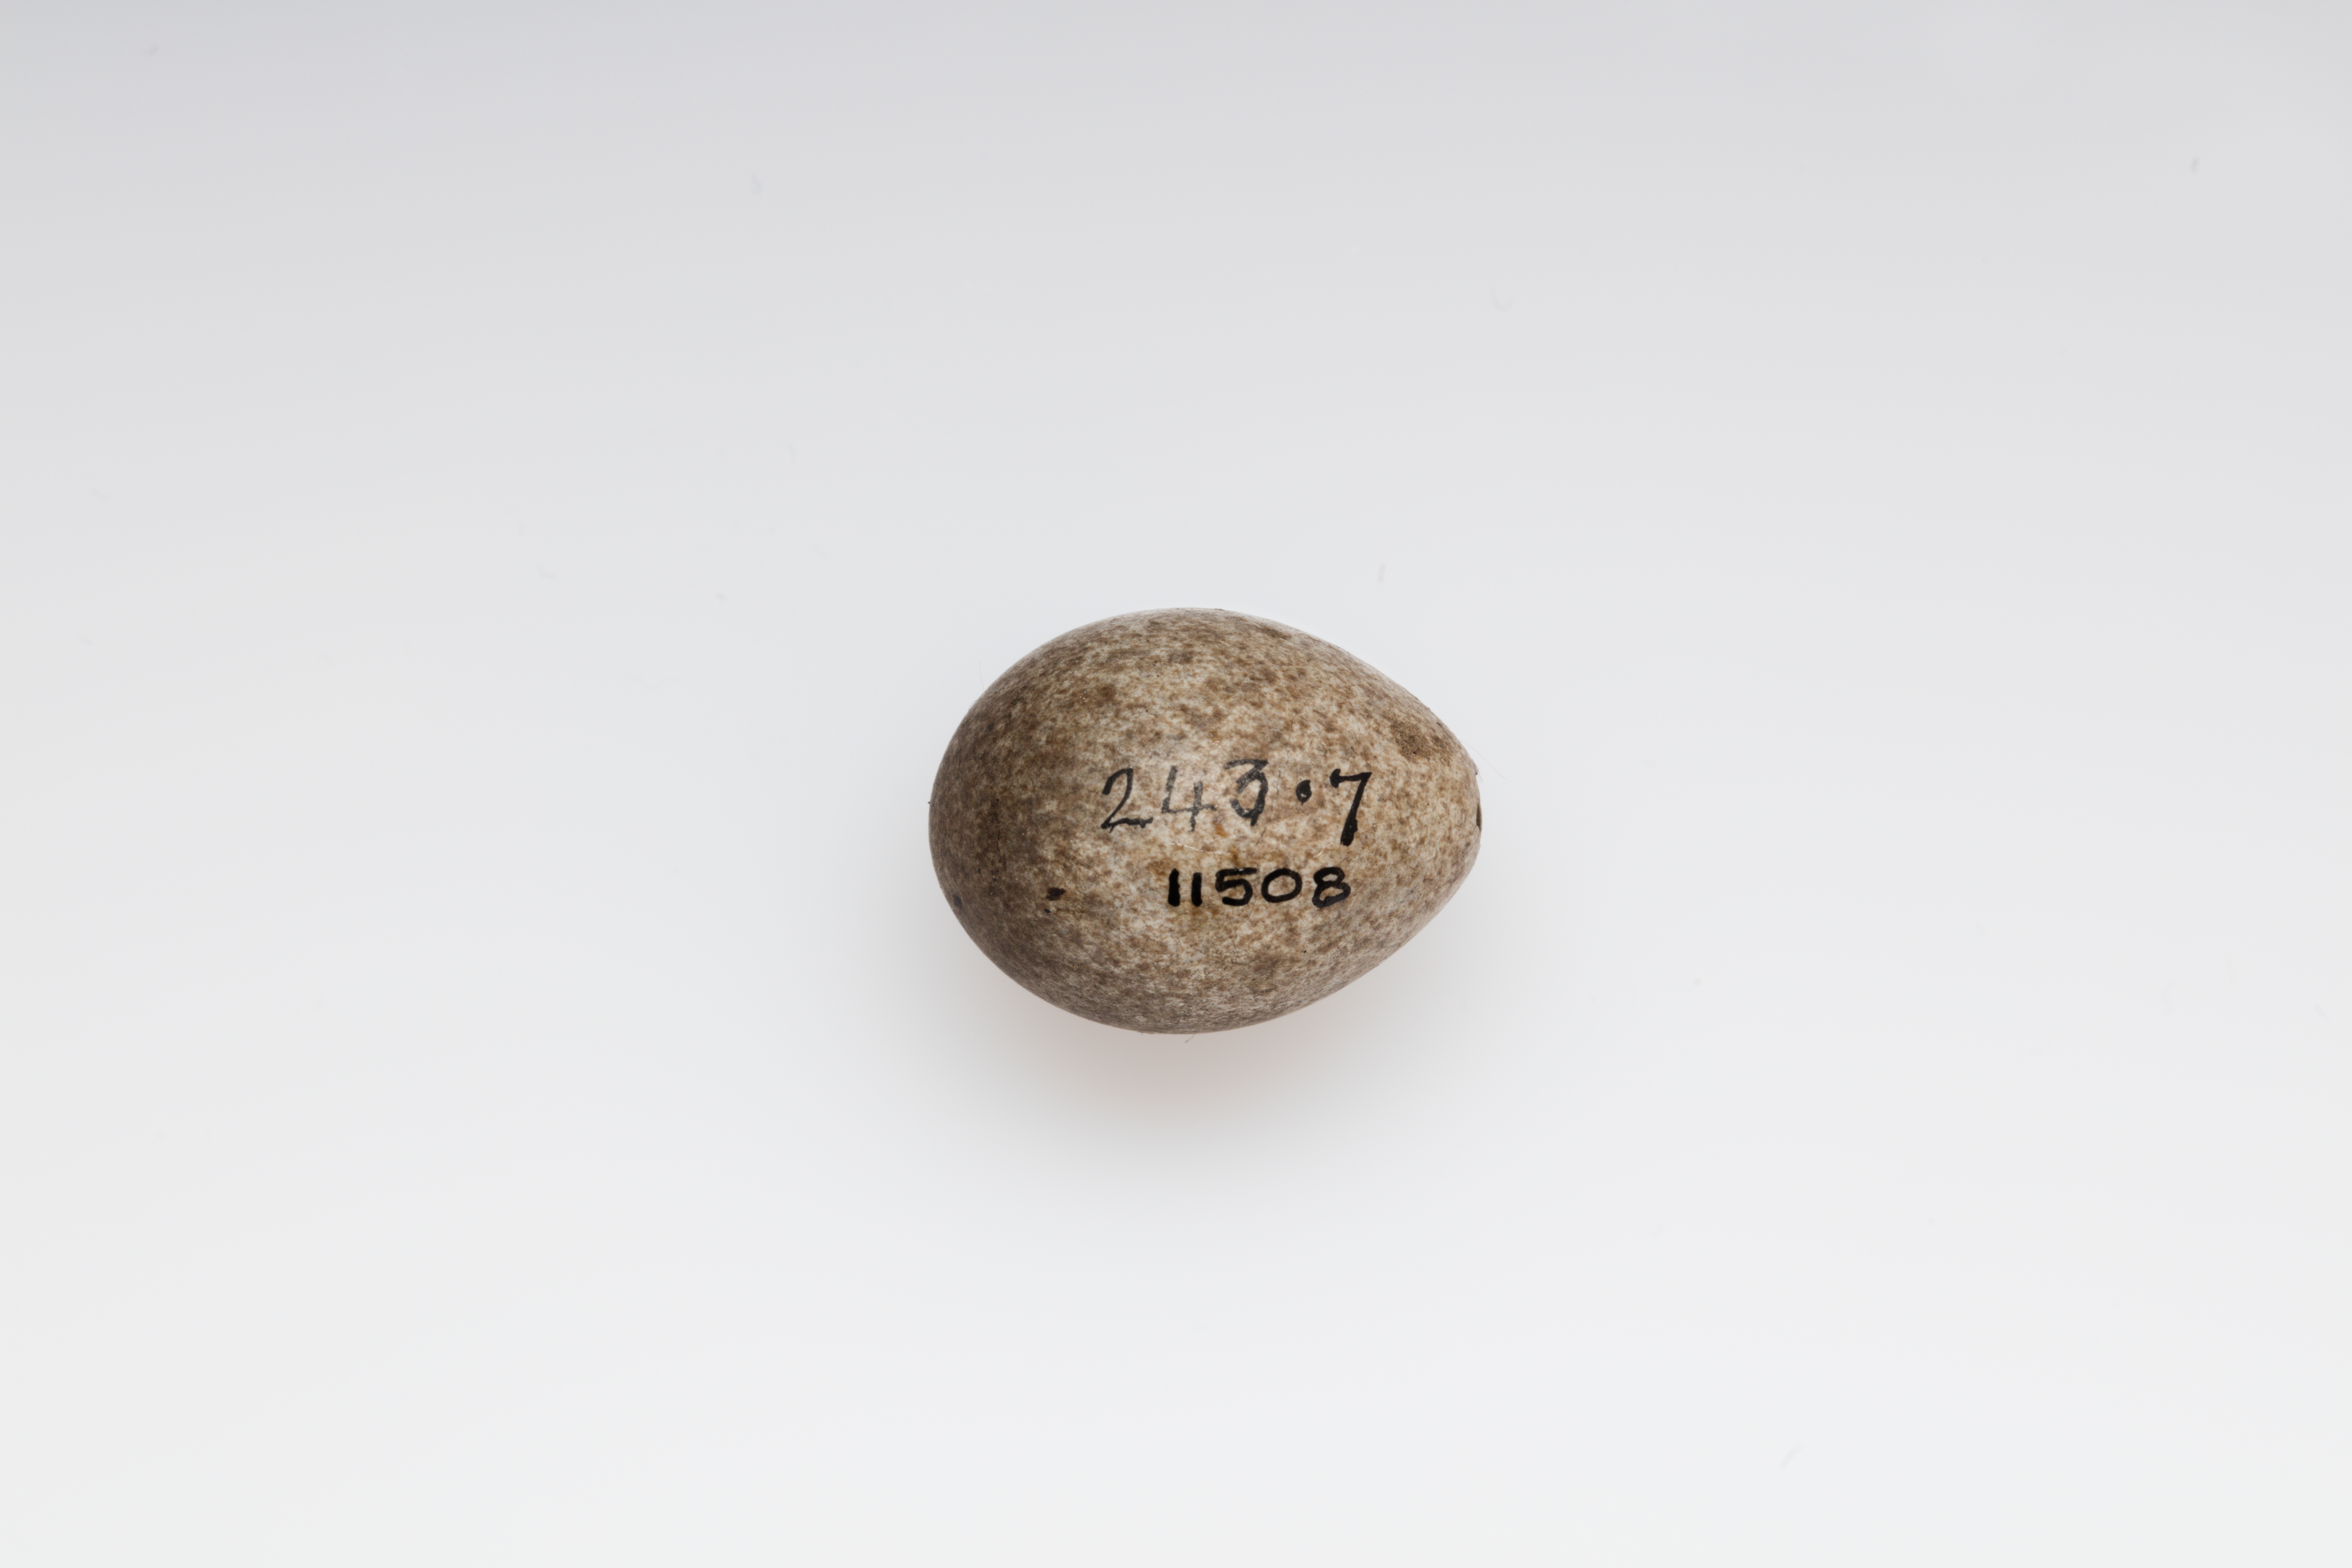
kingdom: Animalia
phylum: Chordata
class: Aves
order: Passeriformes
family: Alaudidae
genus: Alauda
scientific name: Alauda arvensis
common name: Eurasian skylark
